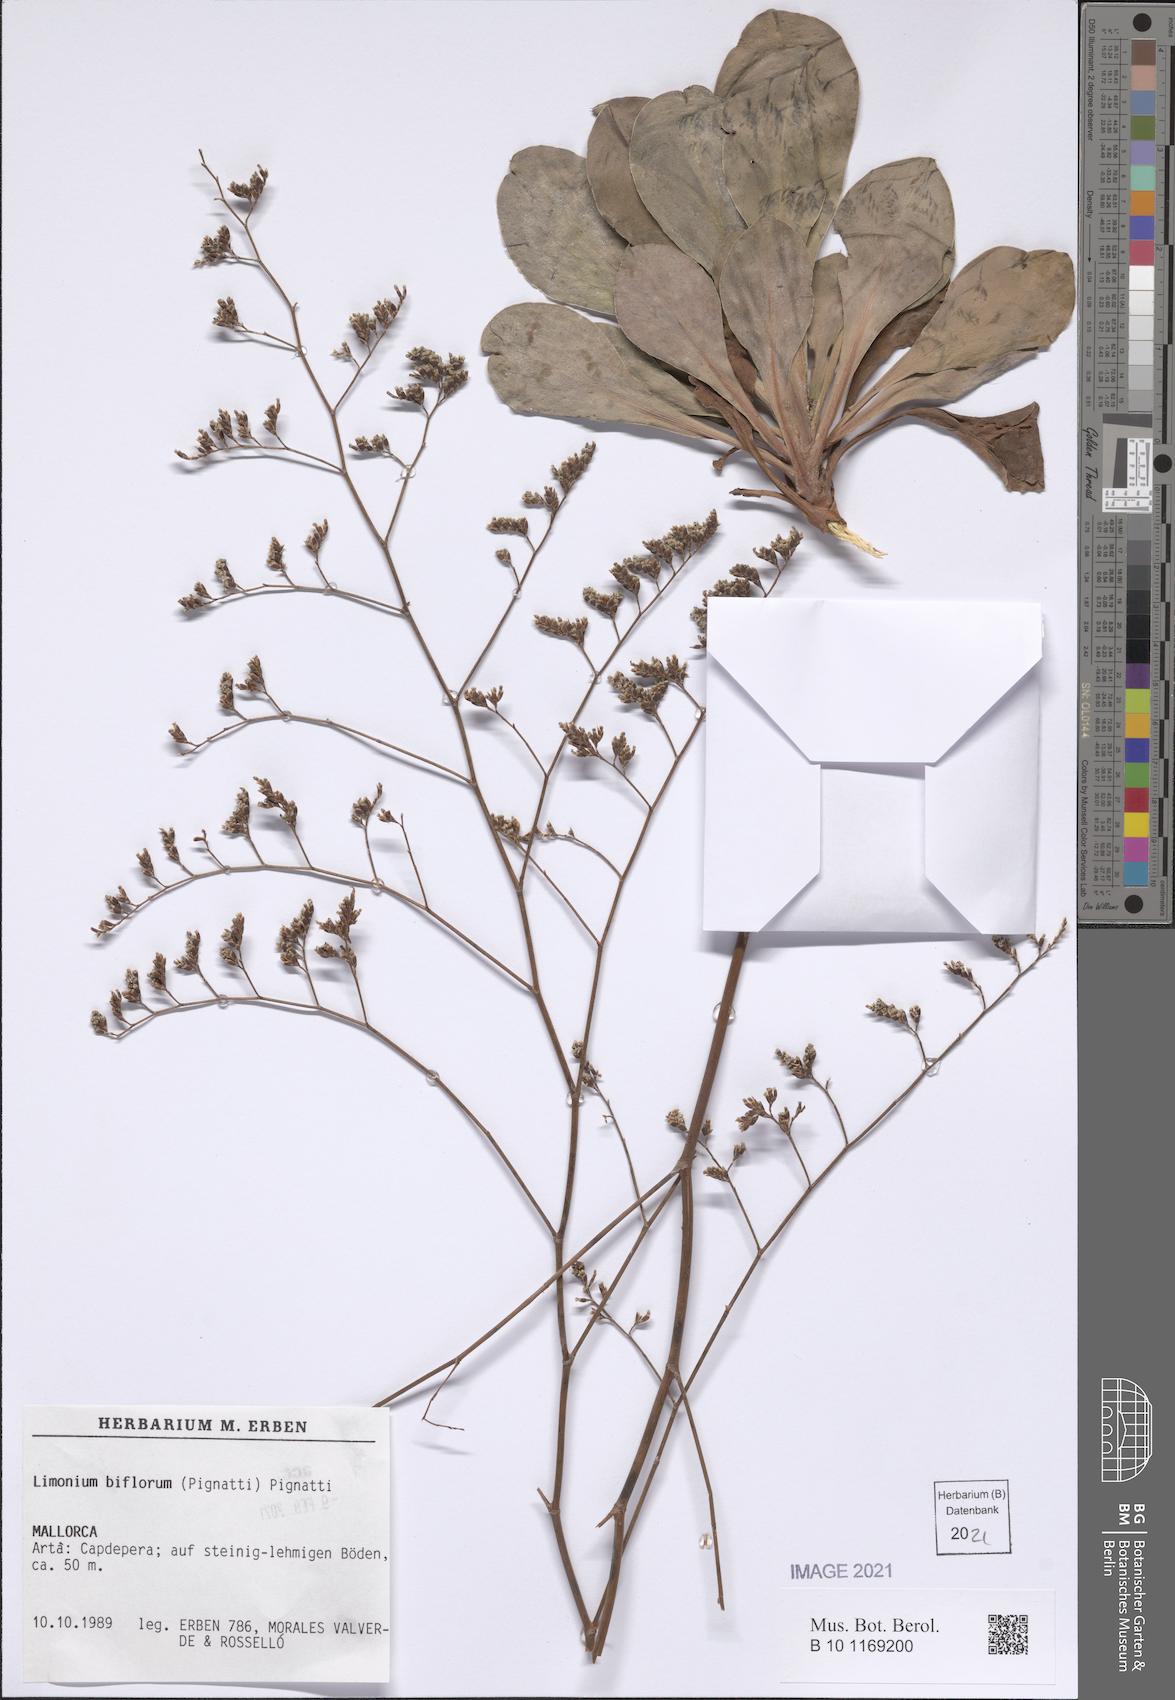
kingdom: Plantae
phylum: Tracheophyta
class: Magnoliopsida
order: Caryophyllales
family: Plumbaginaceae
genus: Limonium
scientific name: Limonium biflorum
